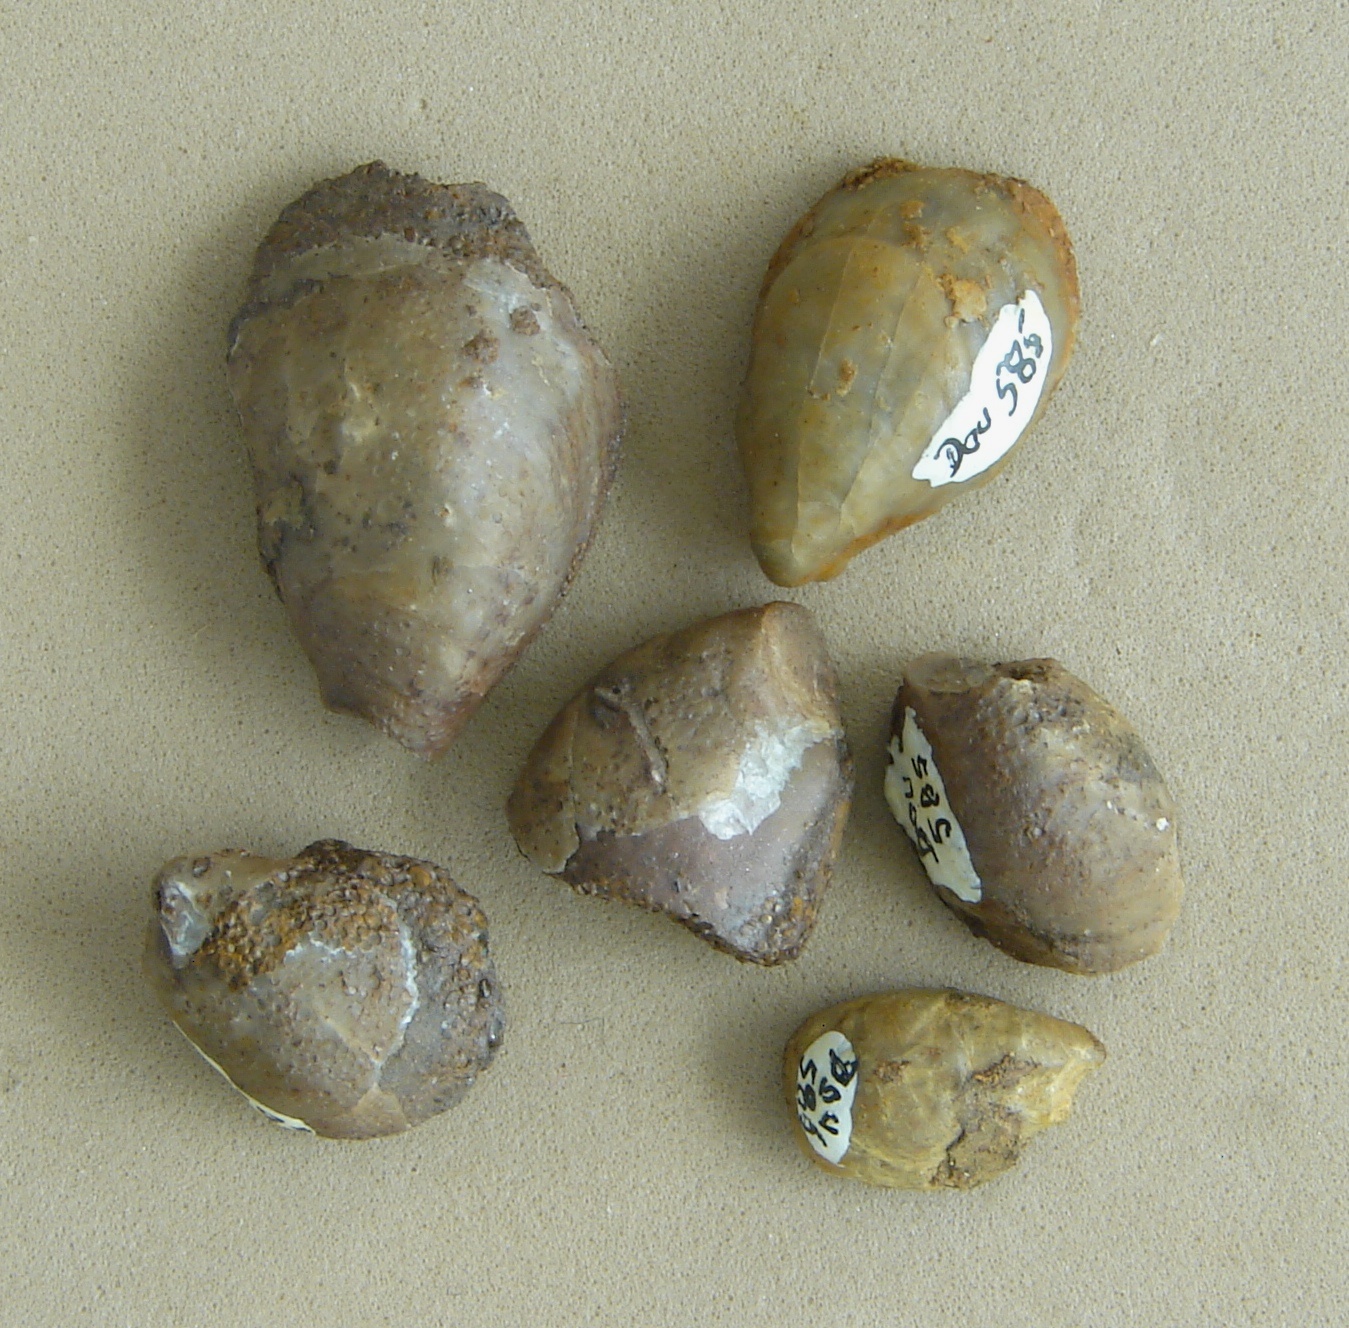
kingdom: Animalia
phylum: Mollusca
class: Bivalvia
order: Ostreida
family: Ostreidae
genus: Ostrea
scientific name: Ostrea calceola
